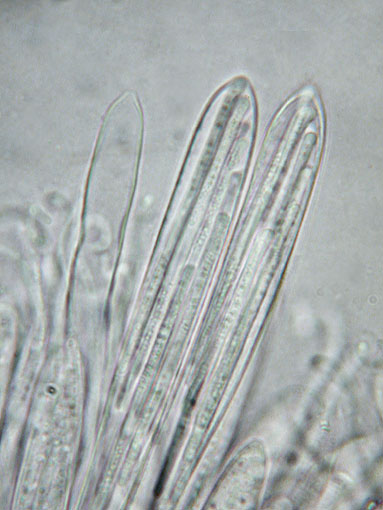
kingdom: Fungi
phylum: Ascomycota
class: Leotiomycetes
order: Rhytismatales
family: Rhytismataceae
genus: Lophodermium
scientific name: Lophodermium foliicola
